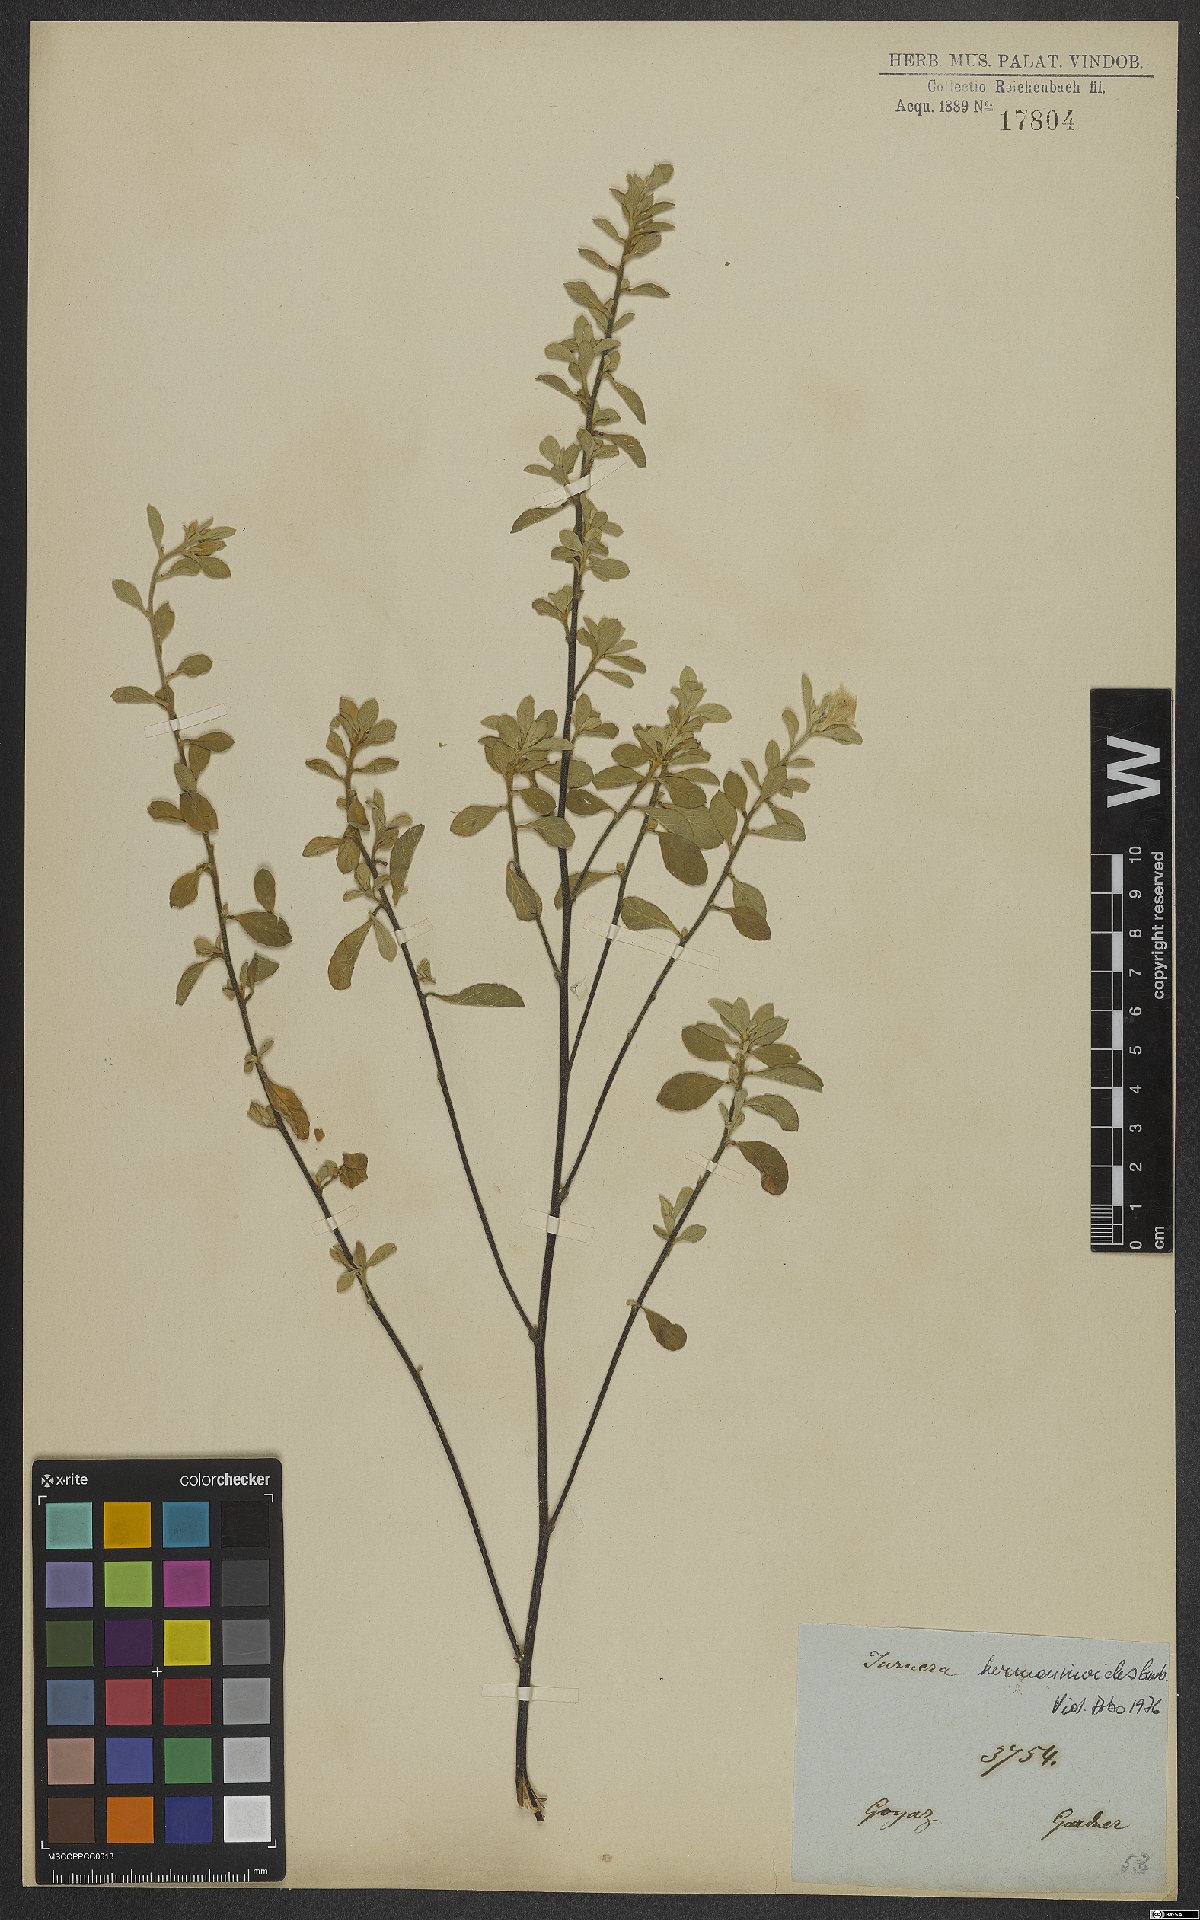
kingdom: Plantae
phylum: Tracheophyta
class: Magnoliopsida
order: Malpighiales
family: Turneraceae
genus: Turnera
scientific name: Turnera hermannioides
